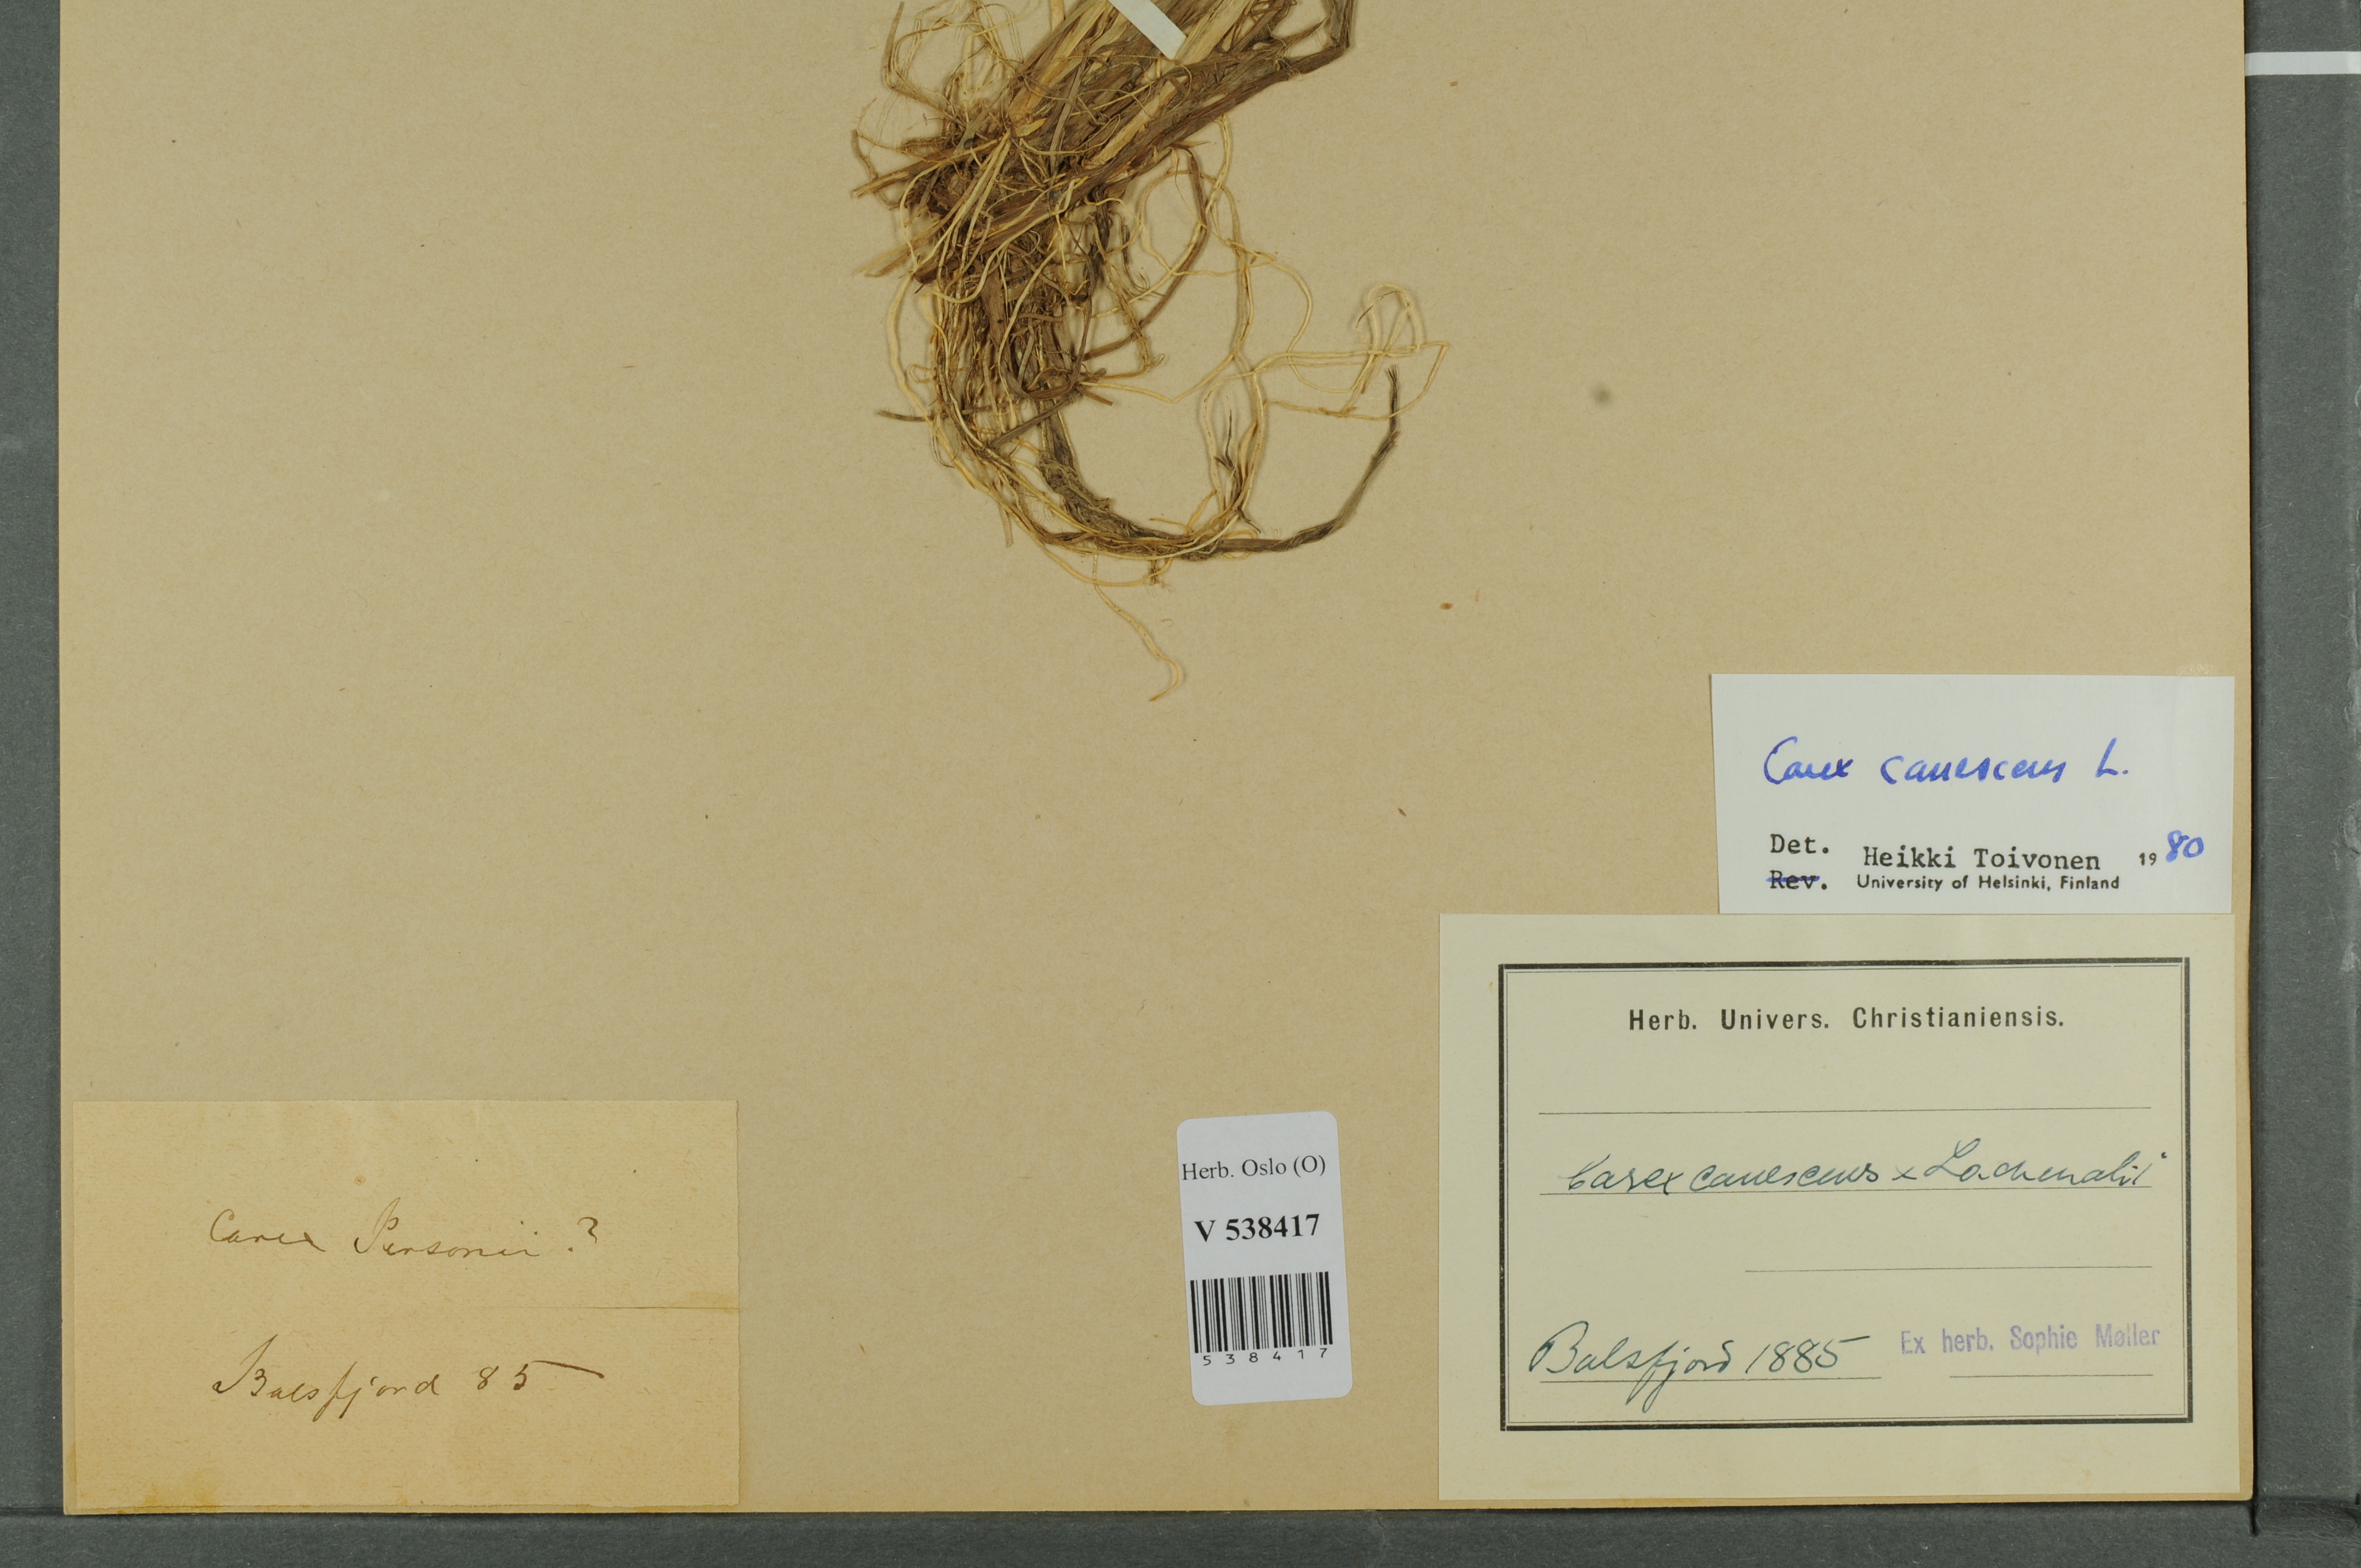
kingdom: Plantae
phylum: Tracheophyta
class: Liliopsida
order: Poales
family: Cyperaceae
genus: Carex
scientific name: Carex canescens
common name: White sedge
